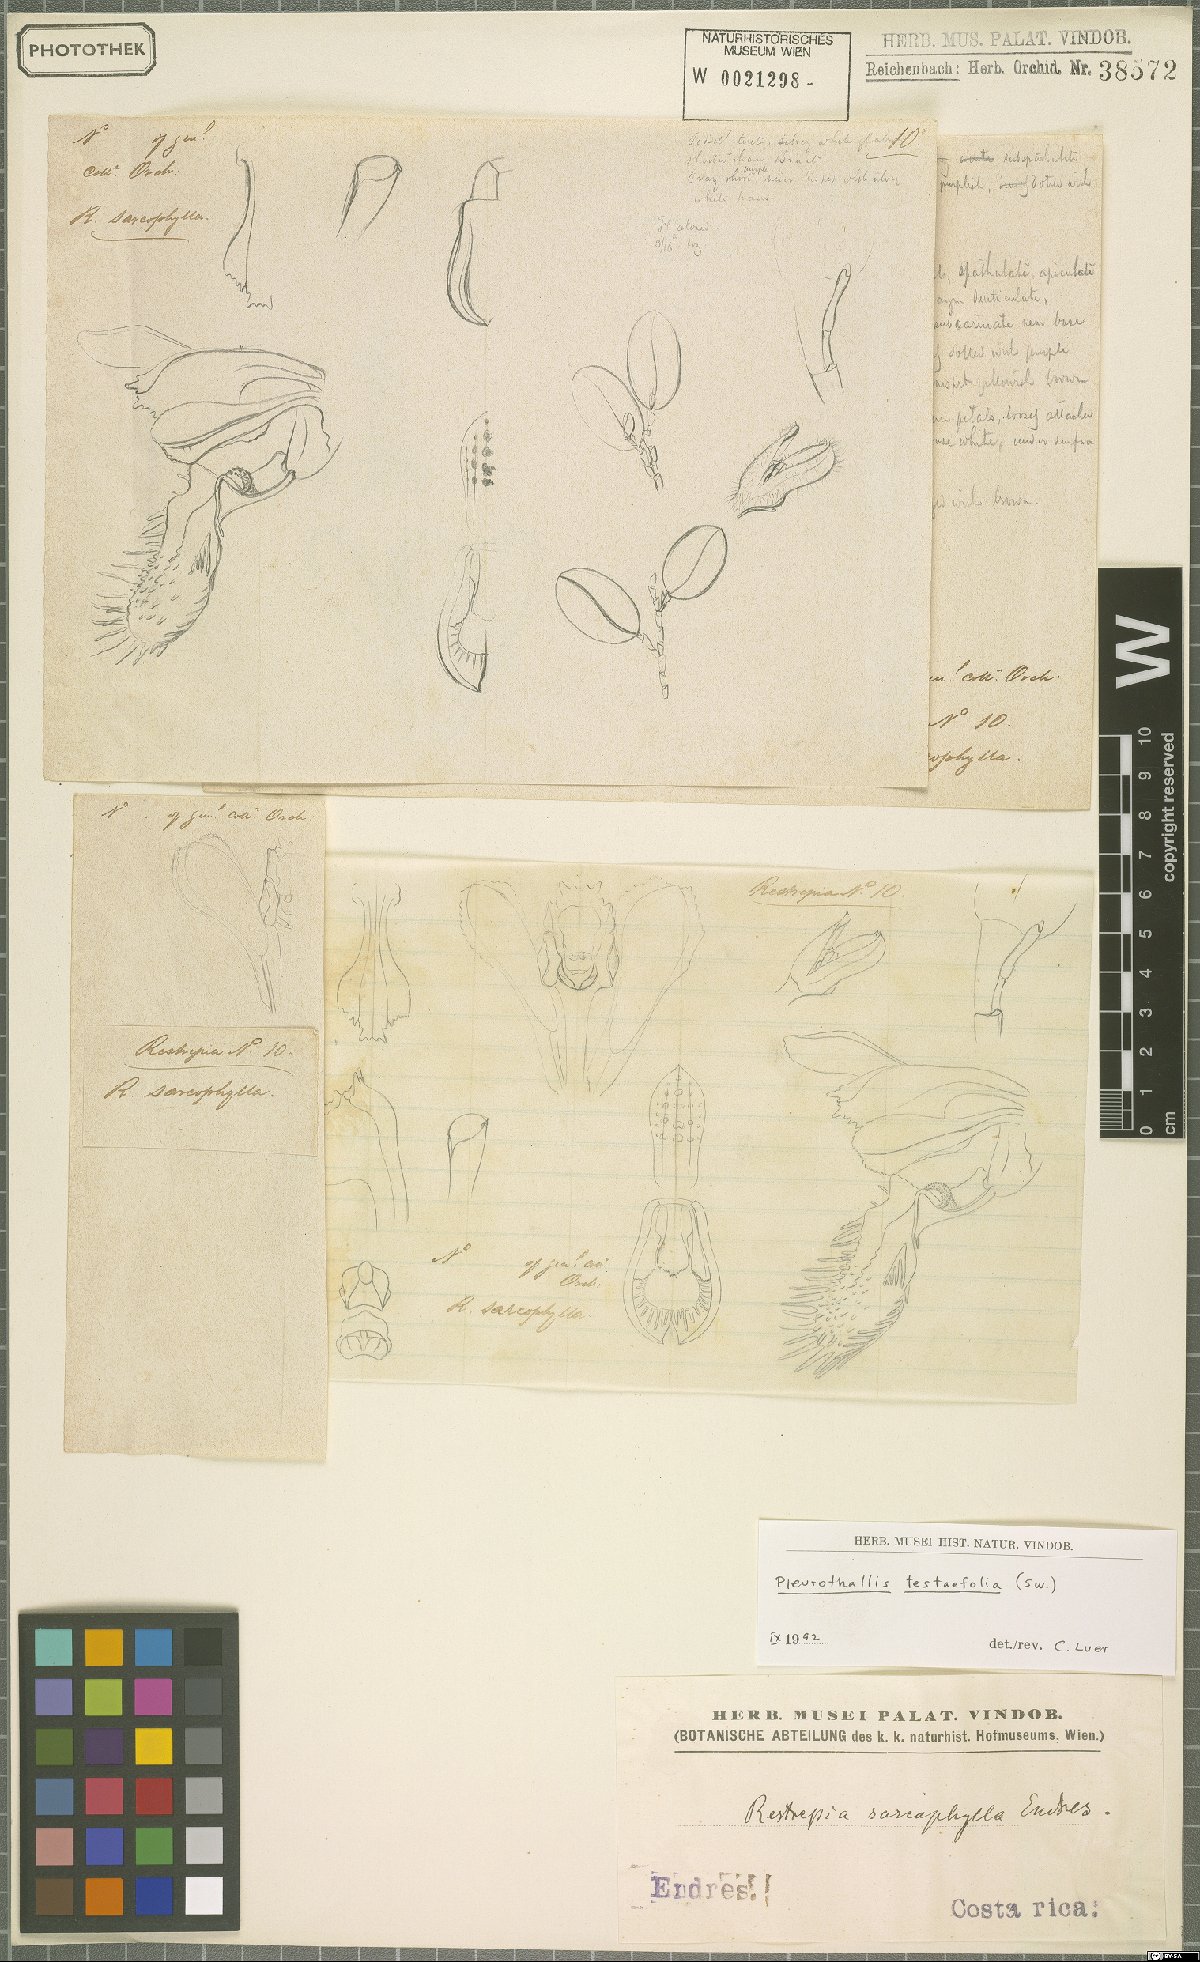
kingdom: Plantae
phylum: Tracheophyta
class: Liliopsida
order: Asparagales
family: Orchidaceae
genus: Acianthera
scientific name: Acianthera testifolia
